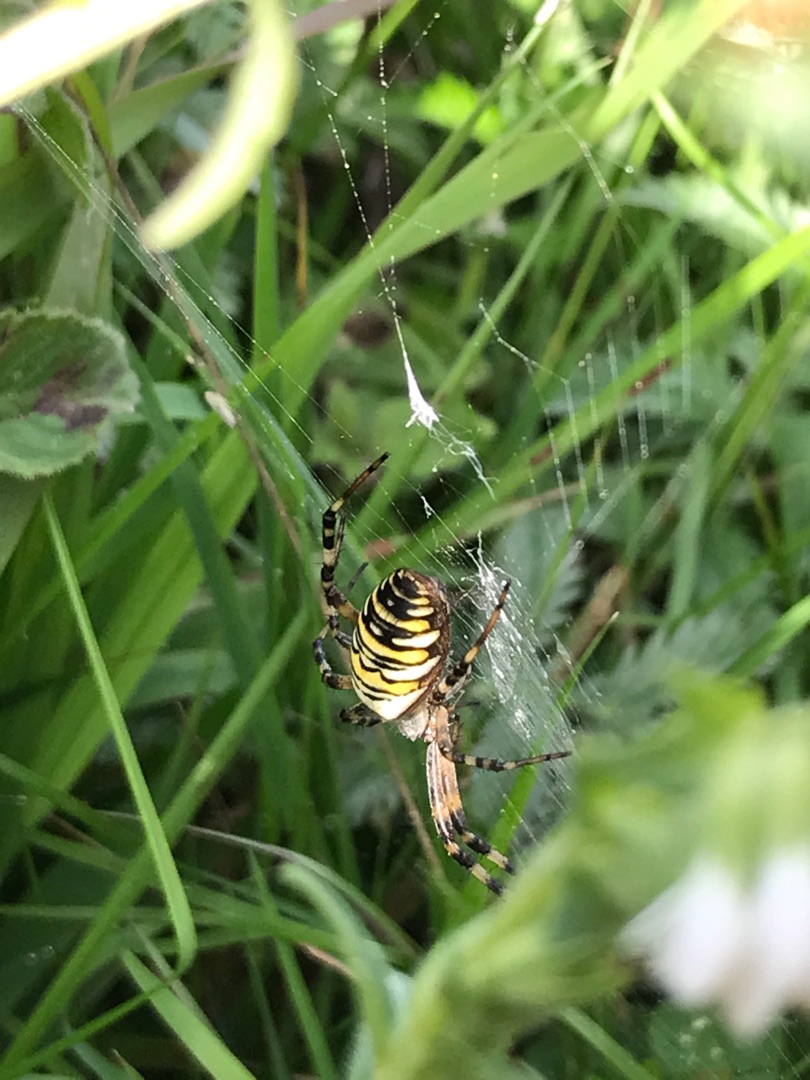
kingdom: Animalia
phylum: Arthropoda
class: Arachnida
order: Araneae
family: Araneidae
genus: Argiope
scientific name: Argiope bruennichi
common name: Hvepseedderkop
